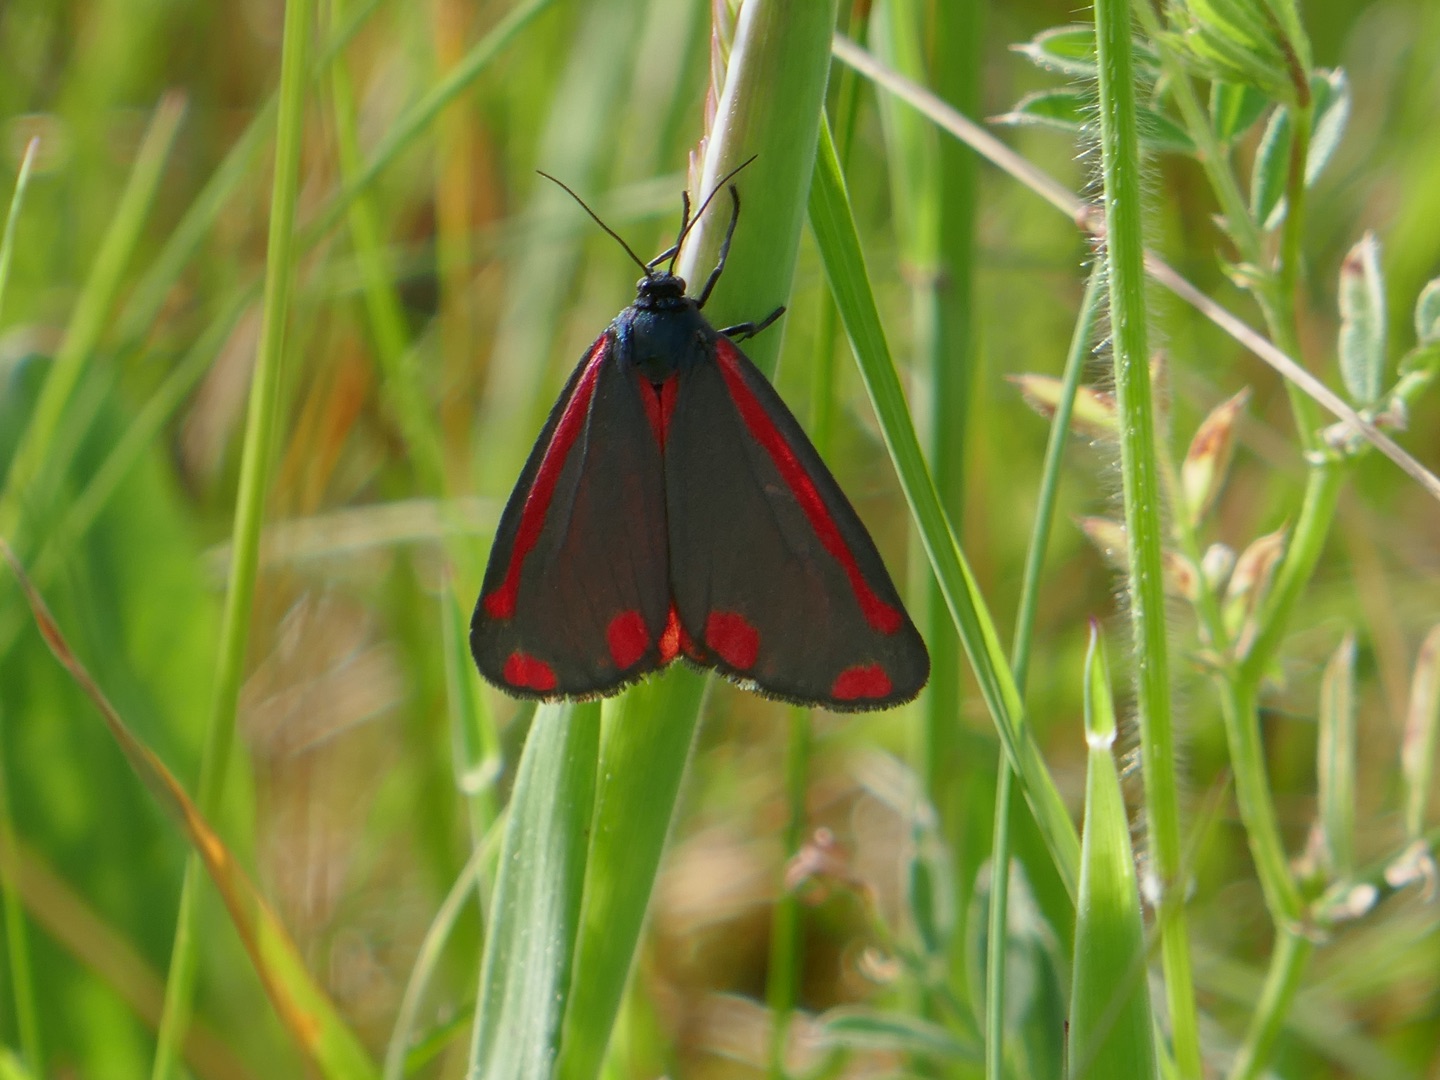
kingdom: Animalia
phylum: Arthropoda
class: Insecta
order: Lepidoptera
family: Erebidae
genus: Tyria
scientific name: Tyria jacobaeae
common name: Blodplet
